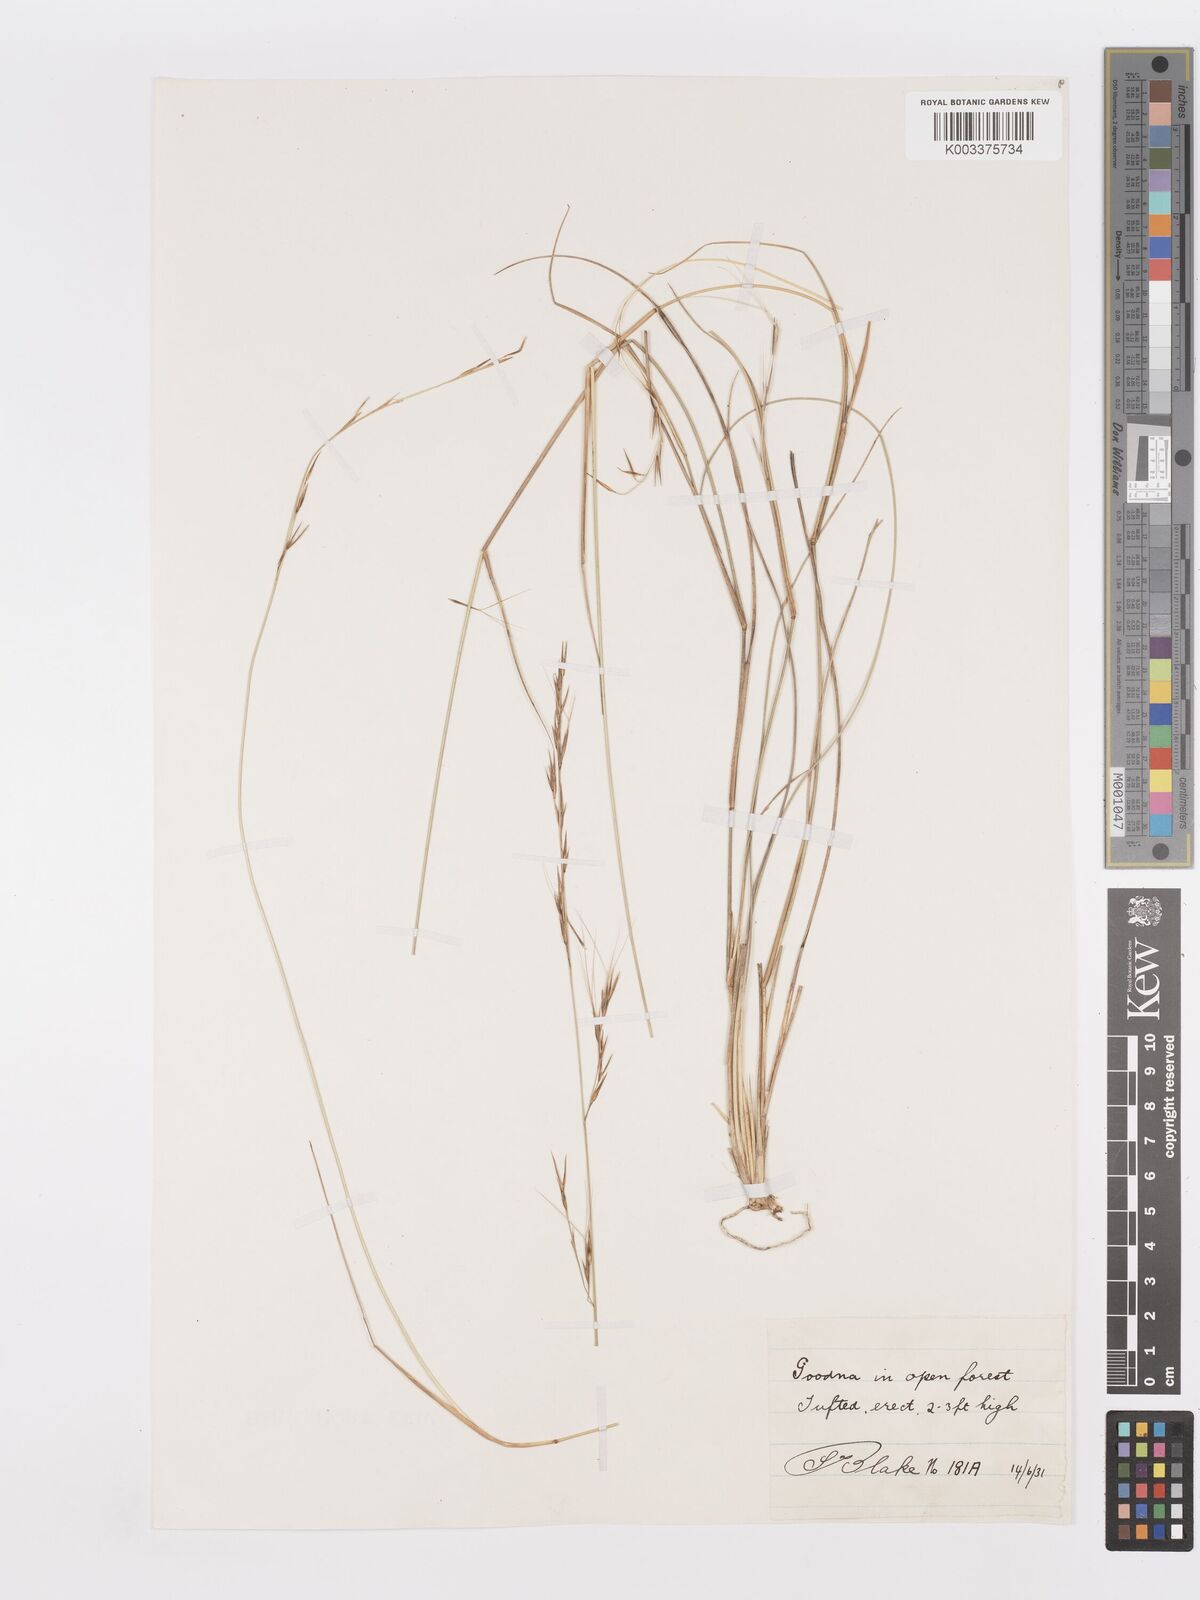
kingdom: Plantae
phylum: Tracheophyta
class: Liliopsida
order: Poales
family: Poaceae
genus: Aristida
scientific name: Aristida
